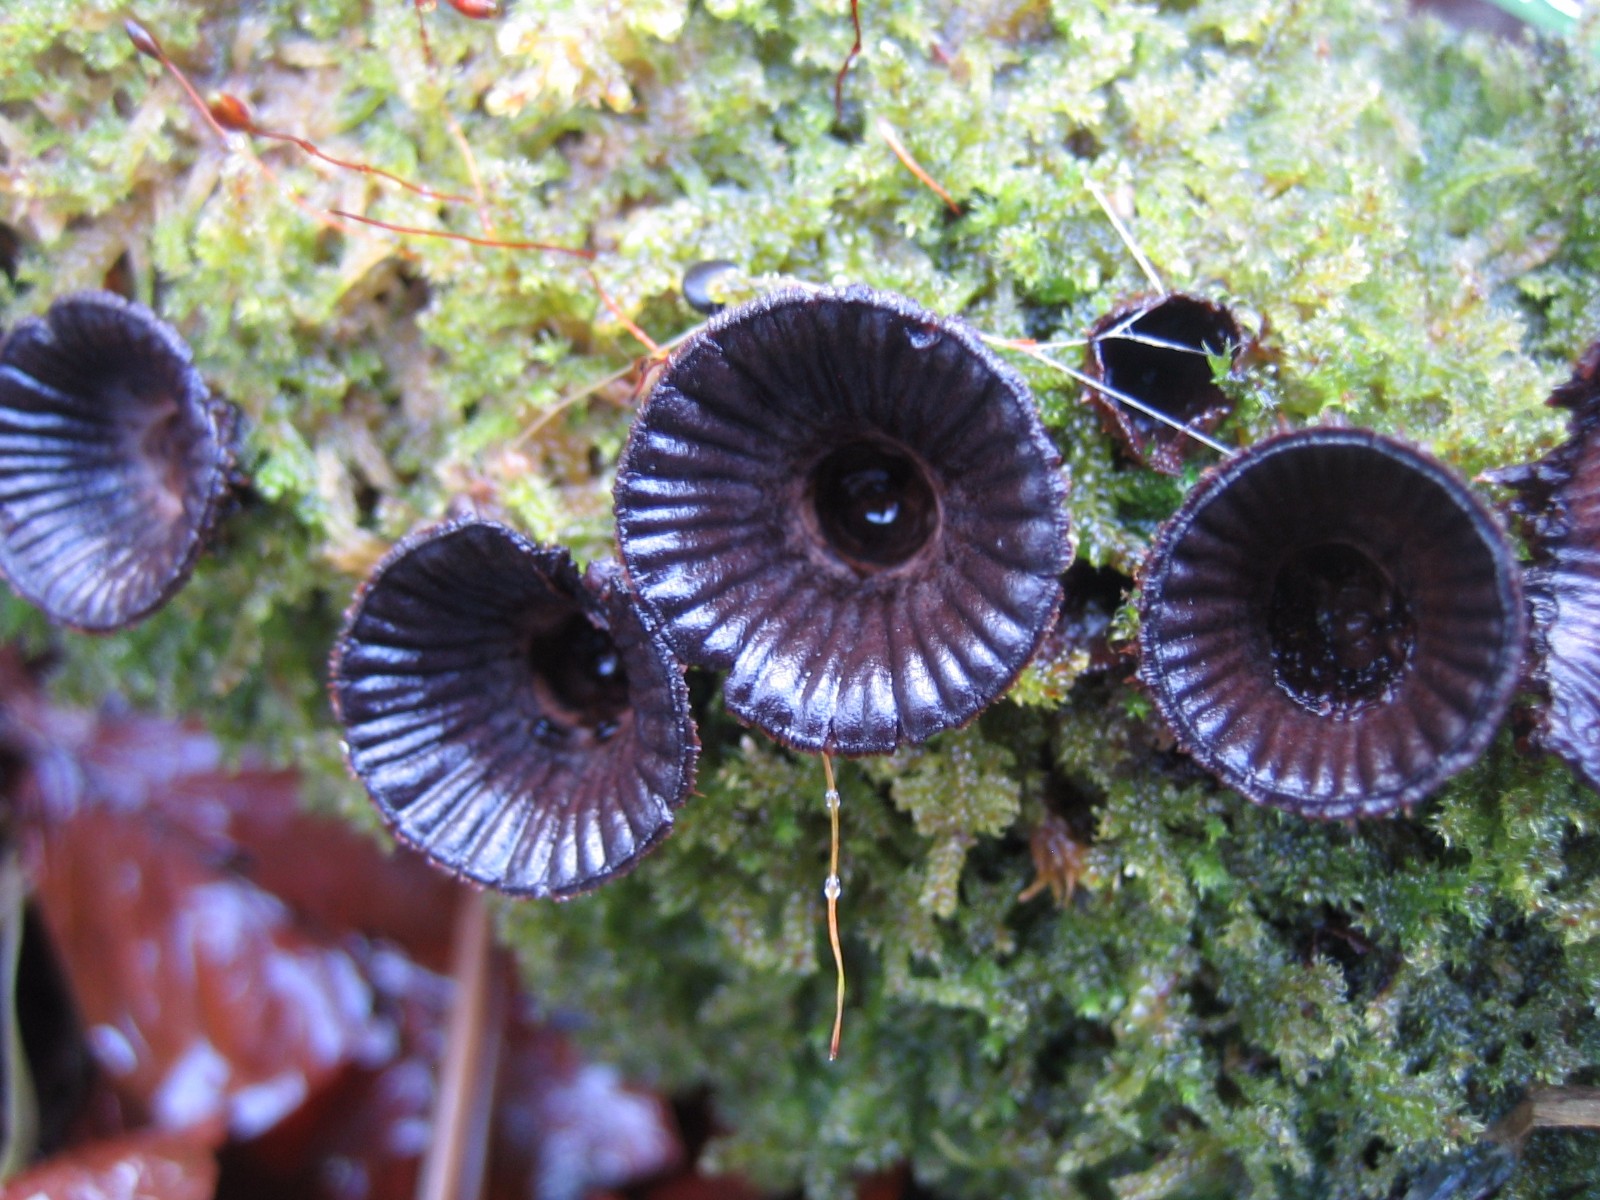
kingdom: Fungi
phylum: Basidiomycota
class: Agaricomycetes
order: Agaricales
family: Agaricaceae
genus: Cyathus
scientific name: Cyathus striatus
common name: stribet redesvamp
